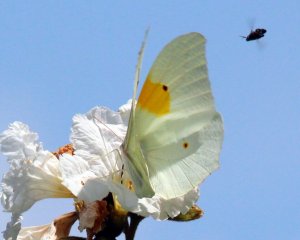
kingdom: Animalia
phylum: Arthropoda
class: Insecta
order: Lepidoptera
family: Pieridae
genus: Anteos
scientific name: Anteos clorinde
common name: White Angled-Sulphur
